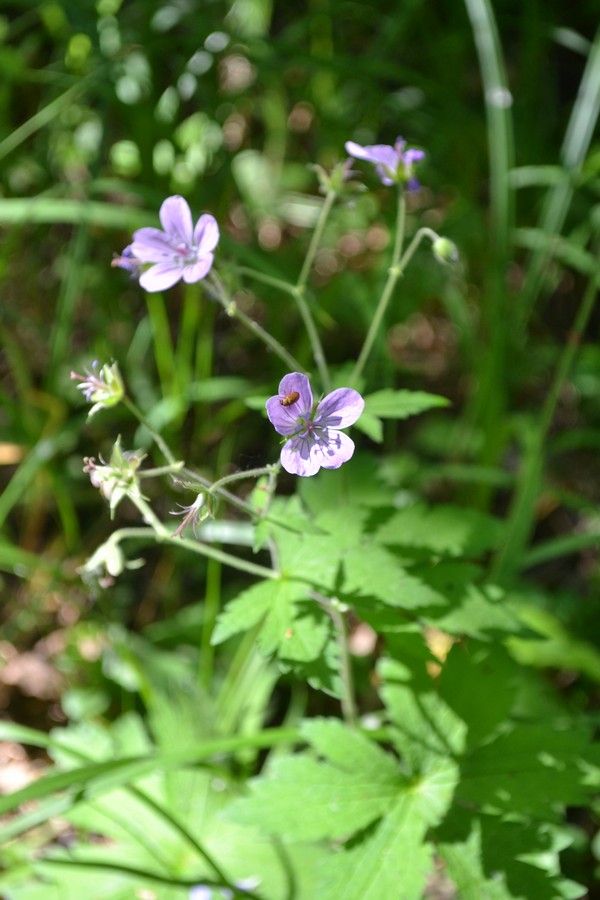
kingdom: Plantae
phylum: Tracheophyta
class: Magnoliopsida
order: Geraniales
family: Geraniaceae
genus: Geranium
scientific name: Geranium sylvaticum
